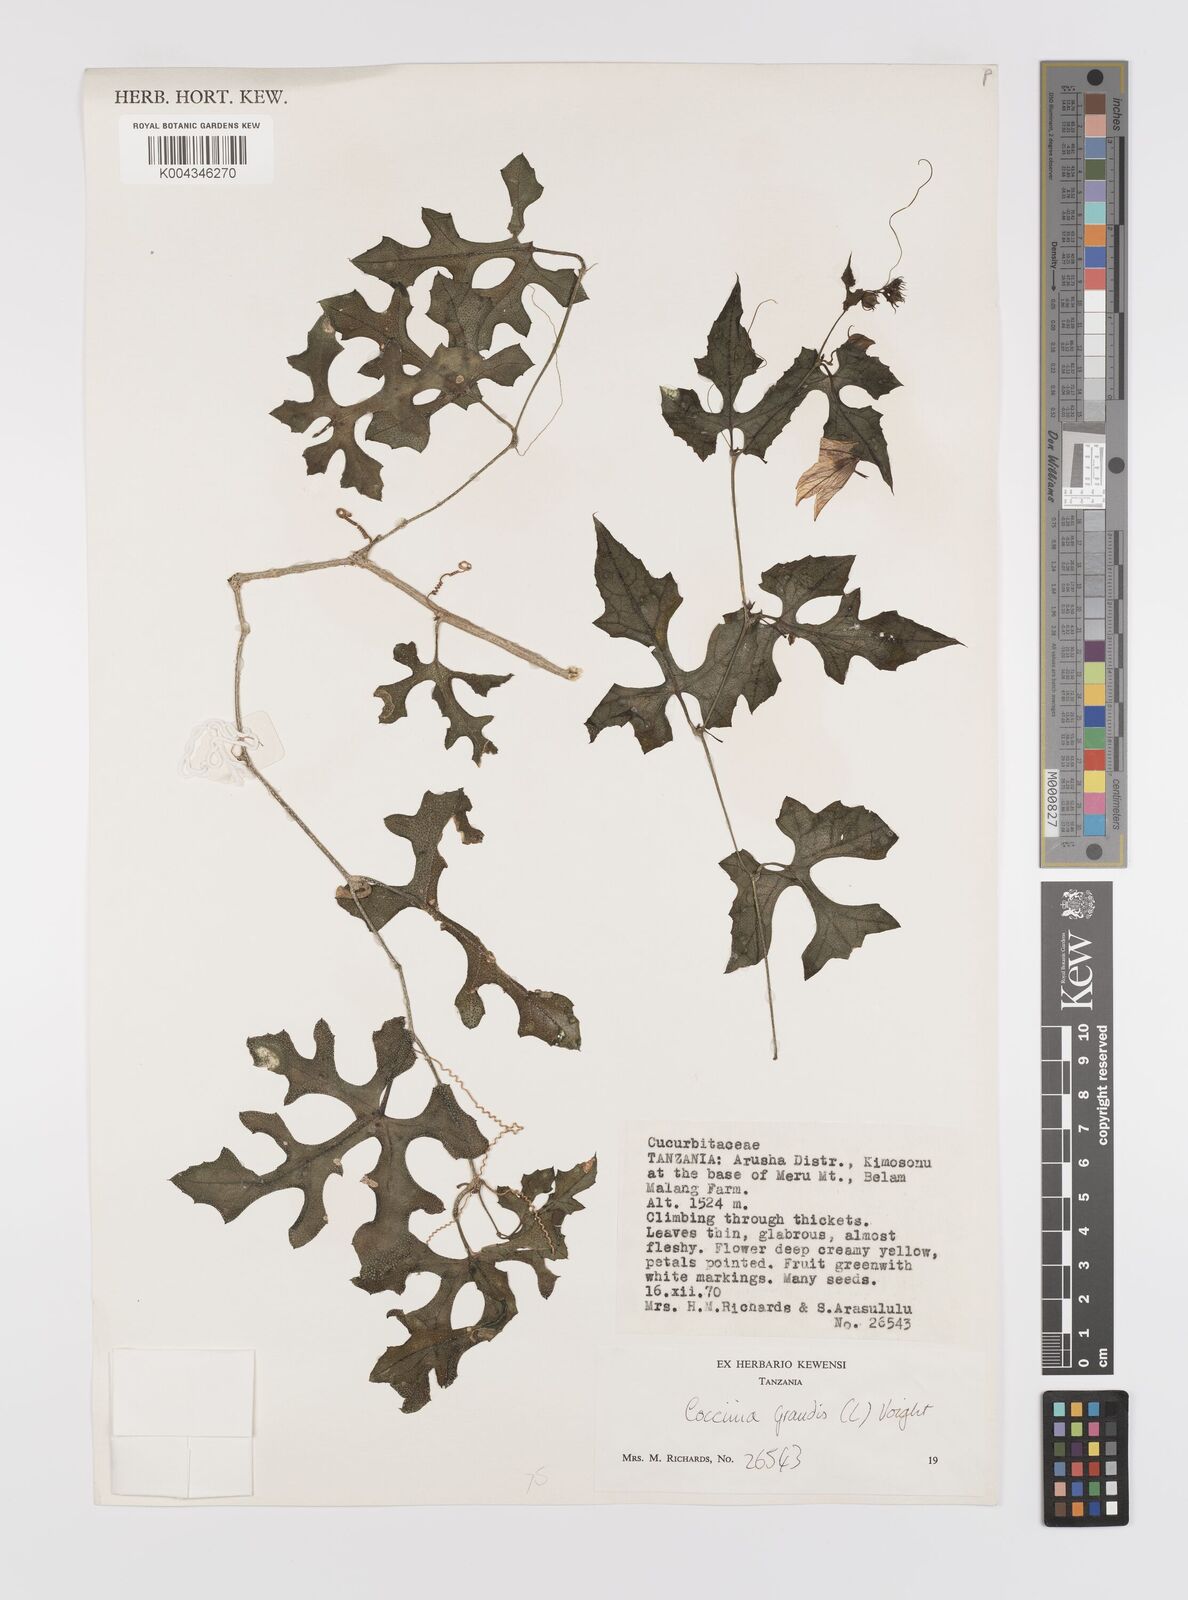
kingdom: Plantae
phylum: Tracheophyta
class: Magnoliopsida
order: Cucurbitales
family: Cucurbitaceae
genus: Coccinia
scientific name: Coccinia grandis
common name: Ivy gourd
